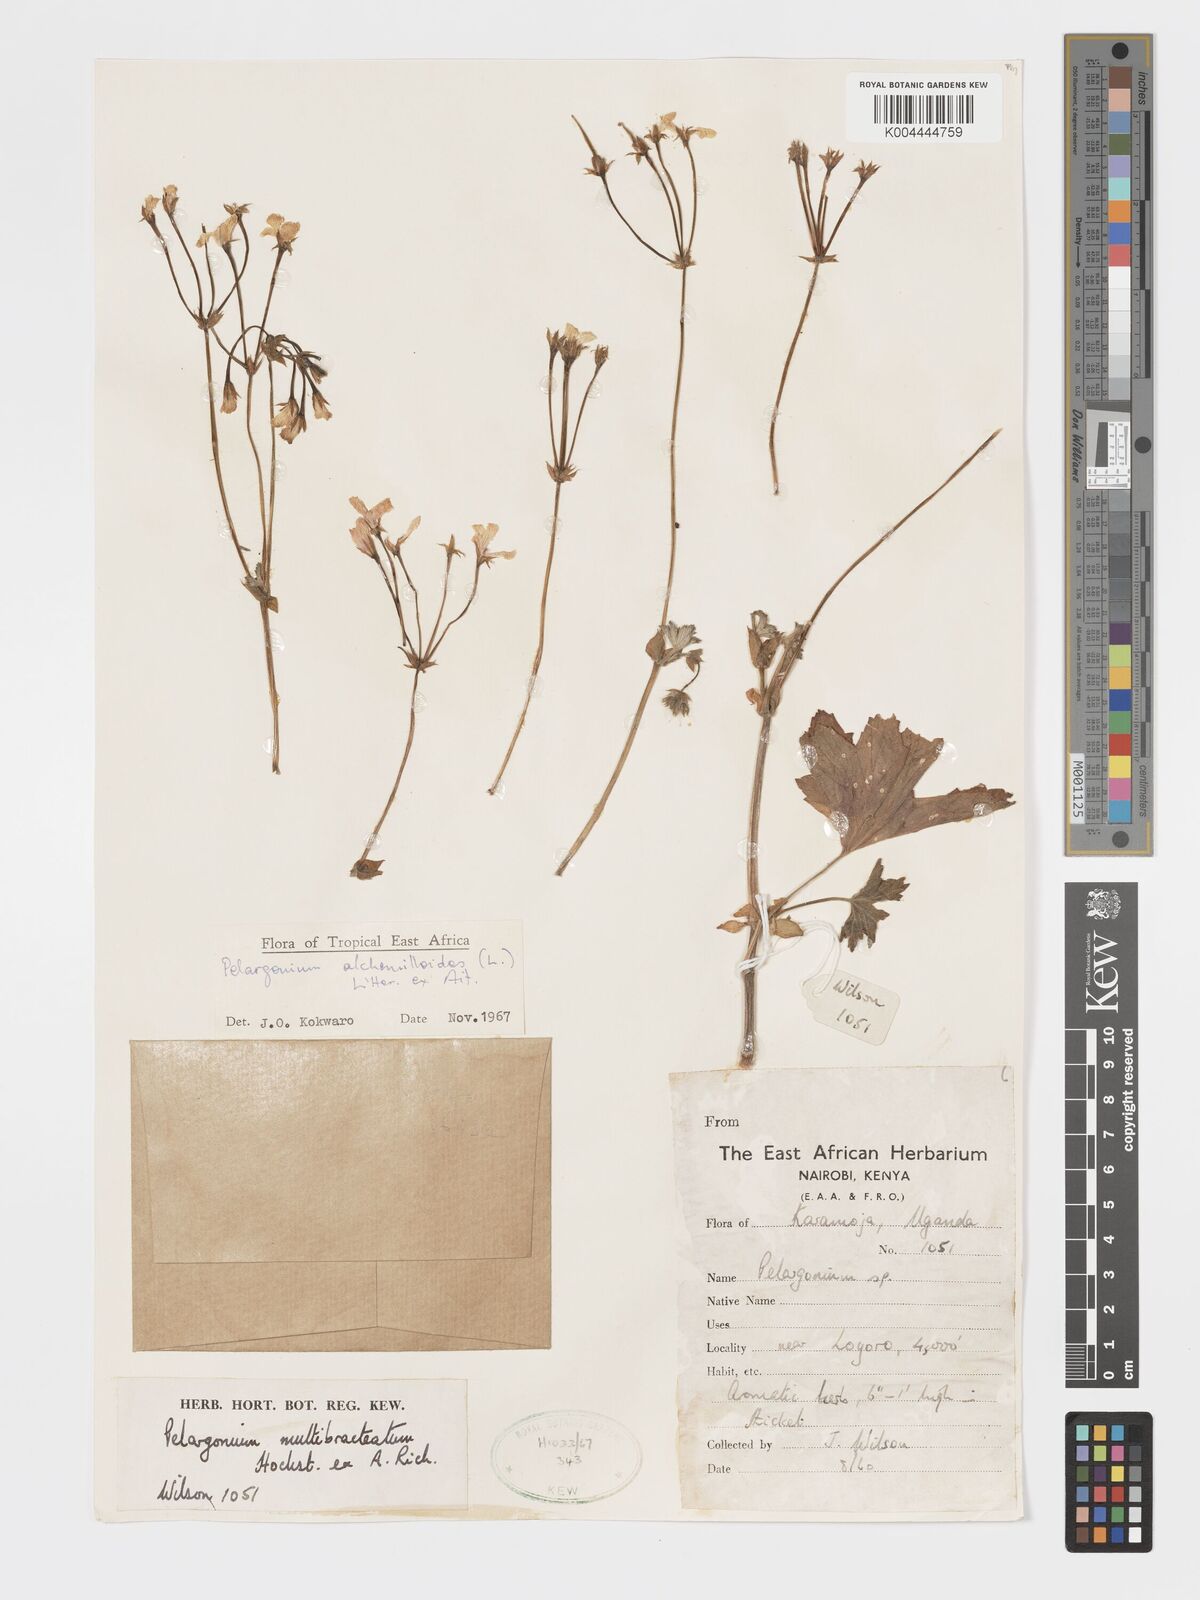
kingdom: Plantae
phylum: Tracheophyta
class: Magnoliopsida
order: Geraniales
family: Geraniaceae
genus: Pelargonium
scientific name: Pelargonium alchemilloides
